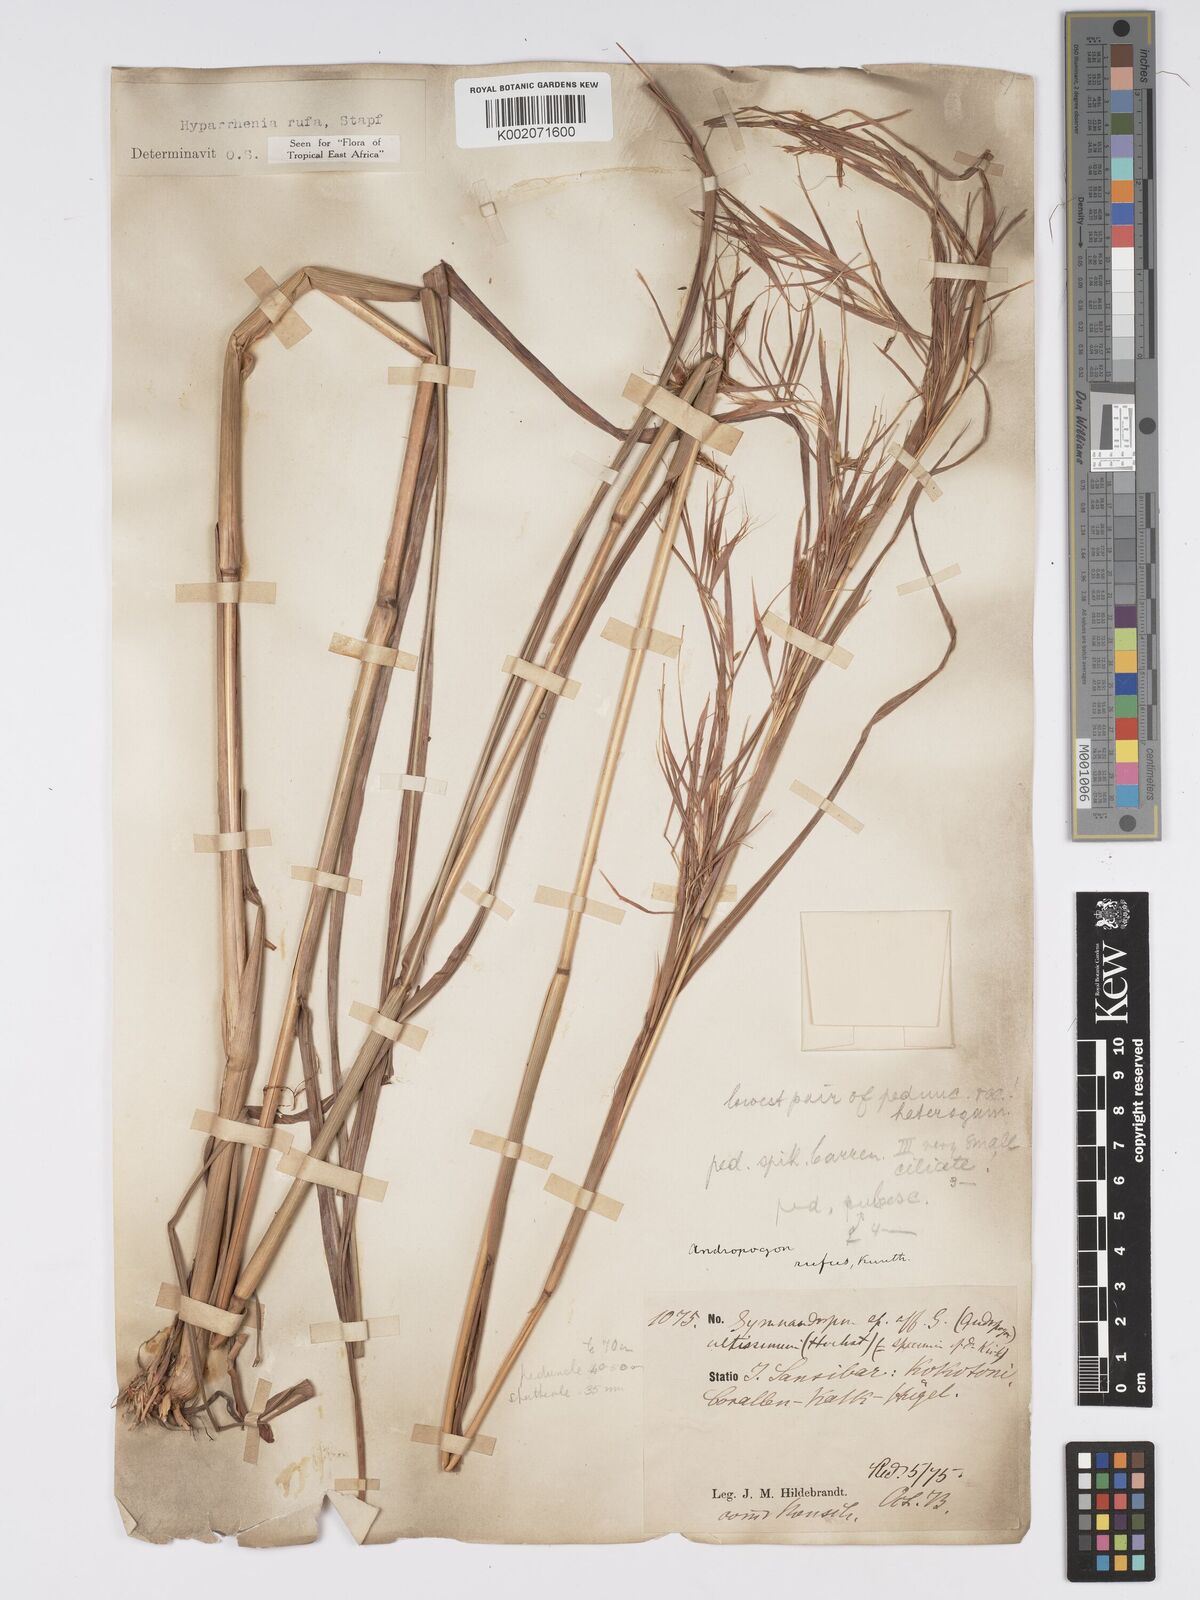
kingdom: Plantae
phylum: Tracheophyta
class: Liliopsida
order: Poales
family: Poaceae
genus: Hyparrhenia
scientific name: Hyparrhenia rufa
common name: Jaraguagrass
